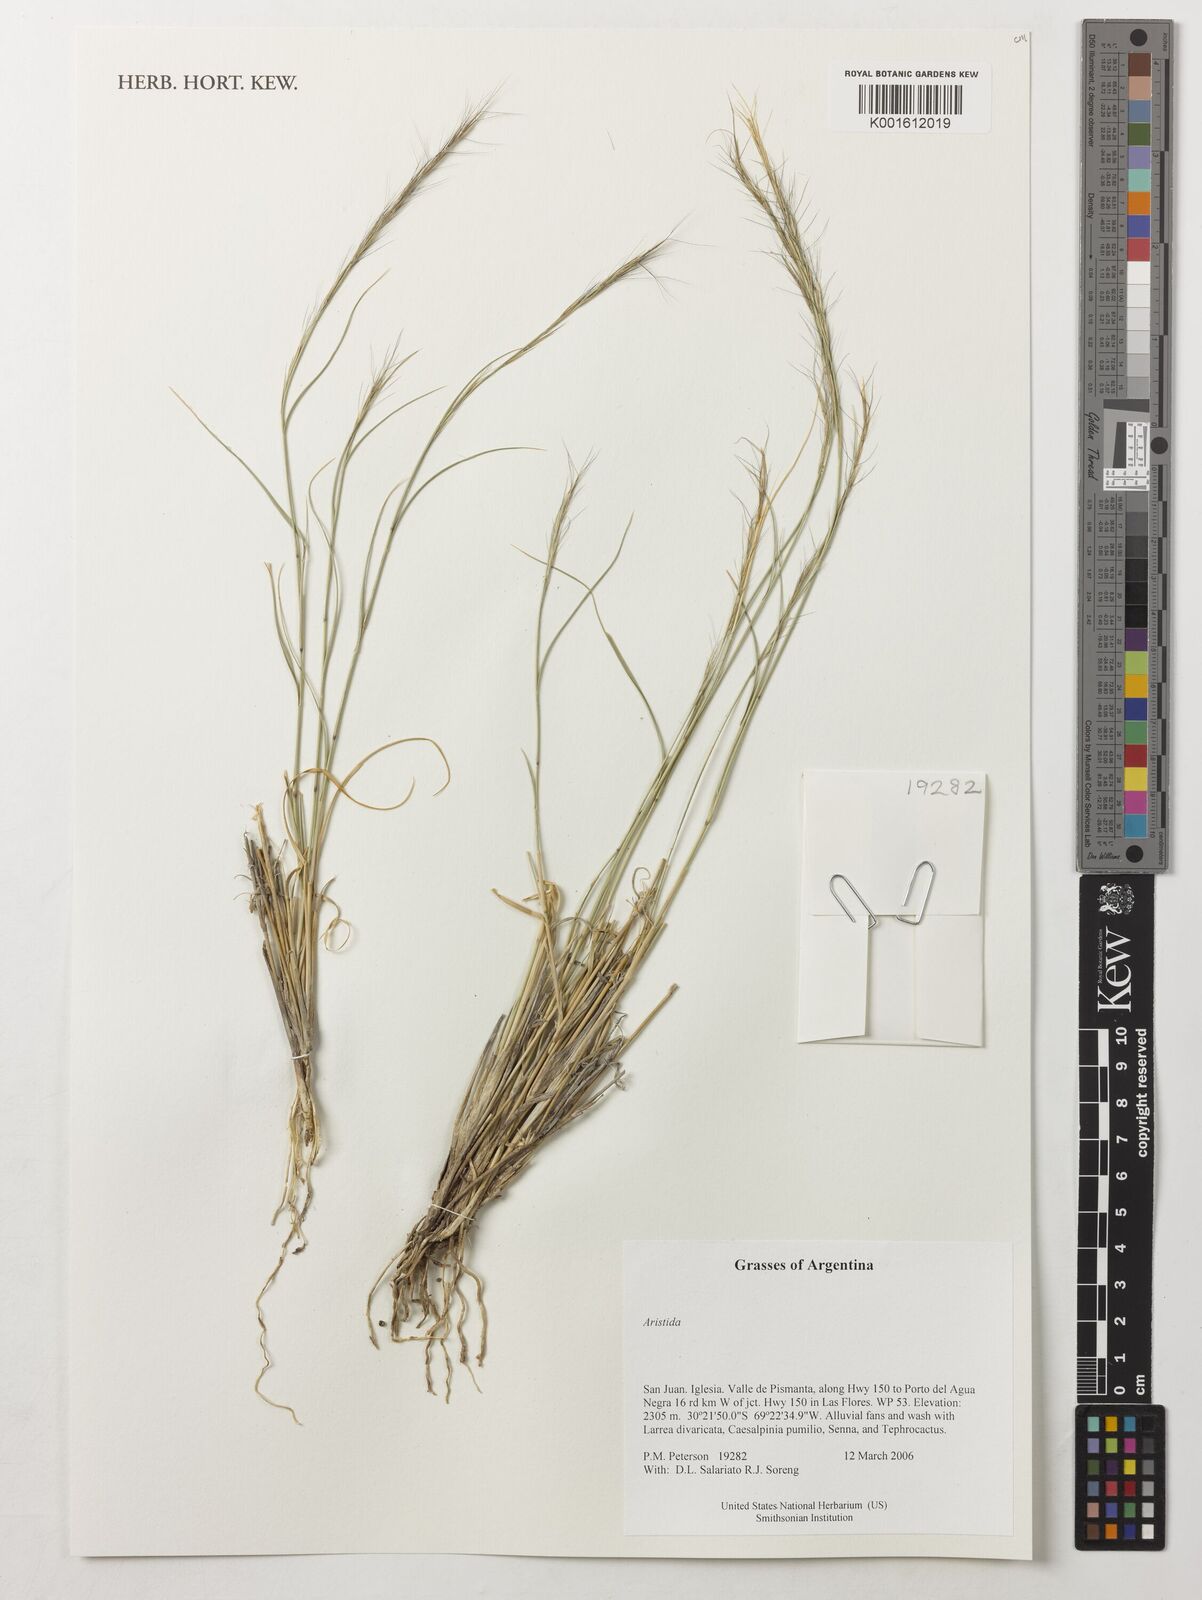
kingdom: Plantae
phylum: Tracheophyta
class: Liliopsida
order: Poales
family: Poaceae
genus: Aristida
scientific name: Aristida
